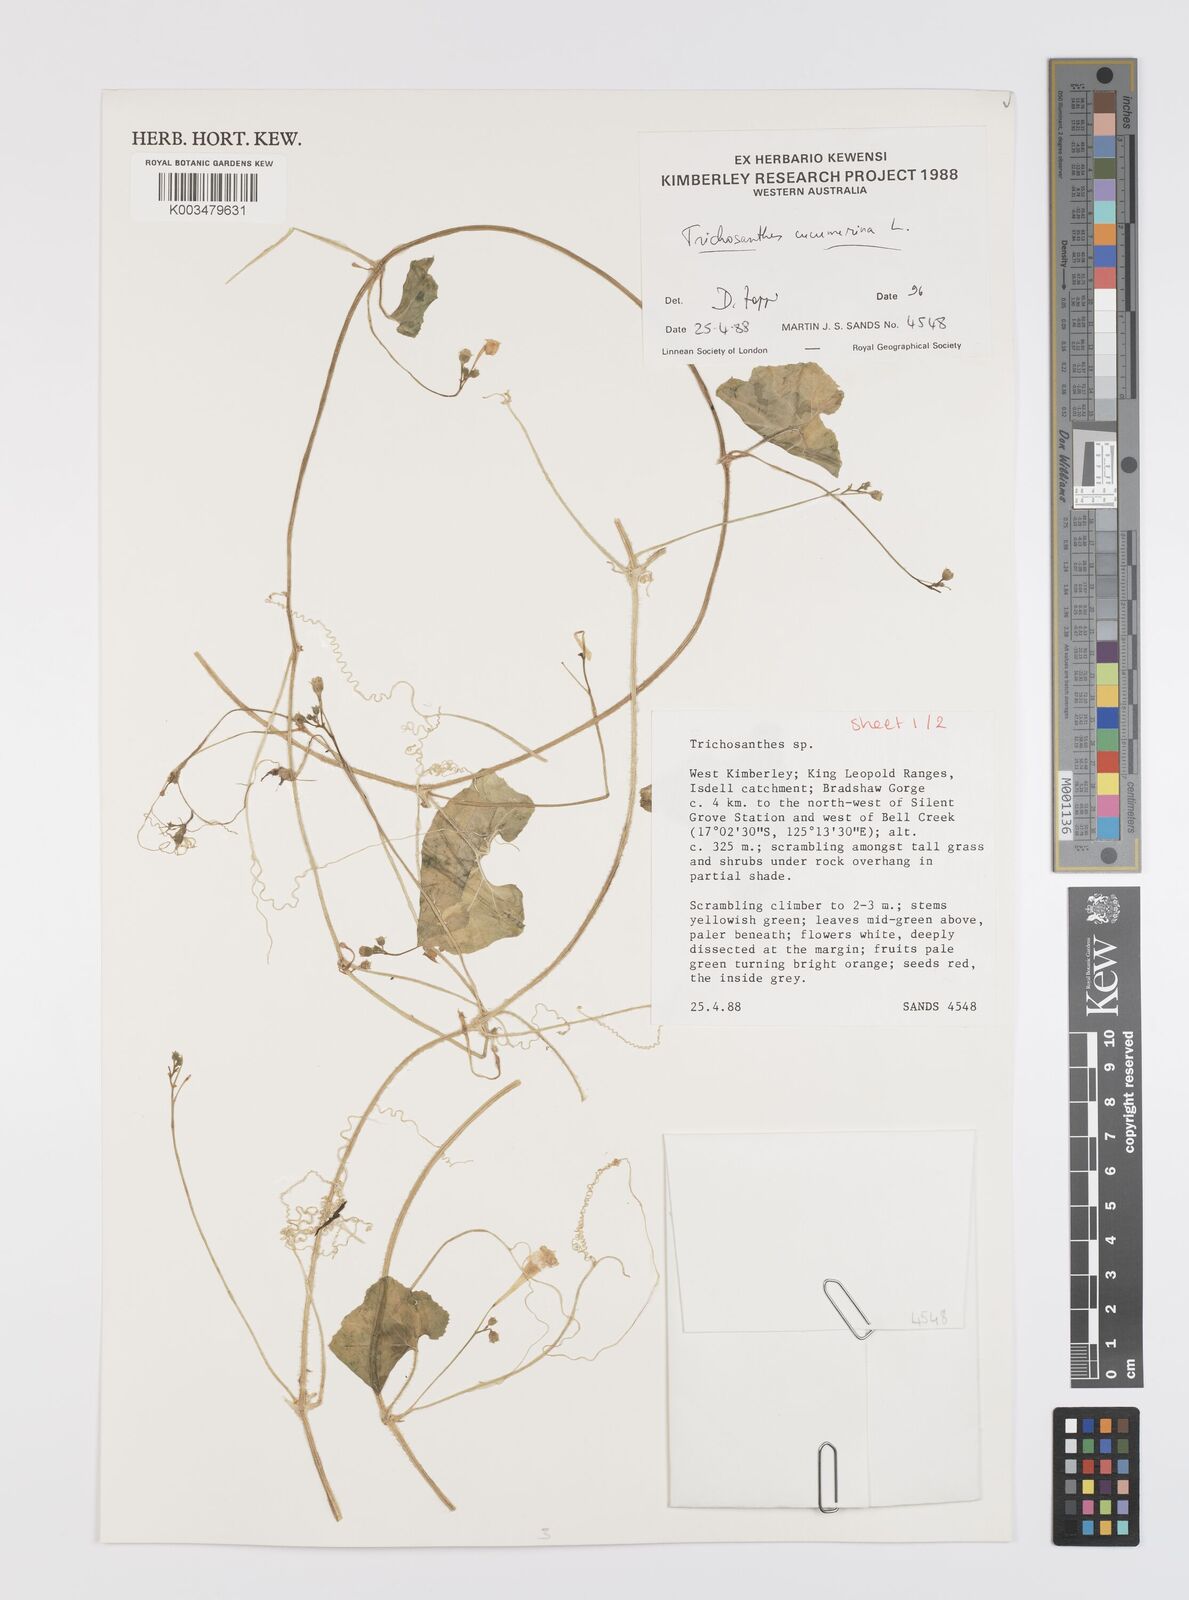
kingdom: Plantae
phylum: Tracheophyta
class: Magnoliopsida
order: Cucurbitales
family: Cucurbitaceae
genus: Trichosanthes
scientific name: Trichosanthes cucumerina
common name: Snakegourd
